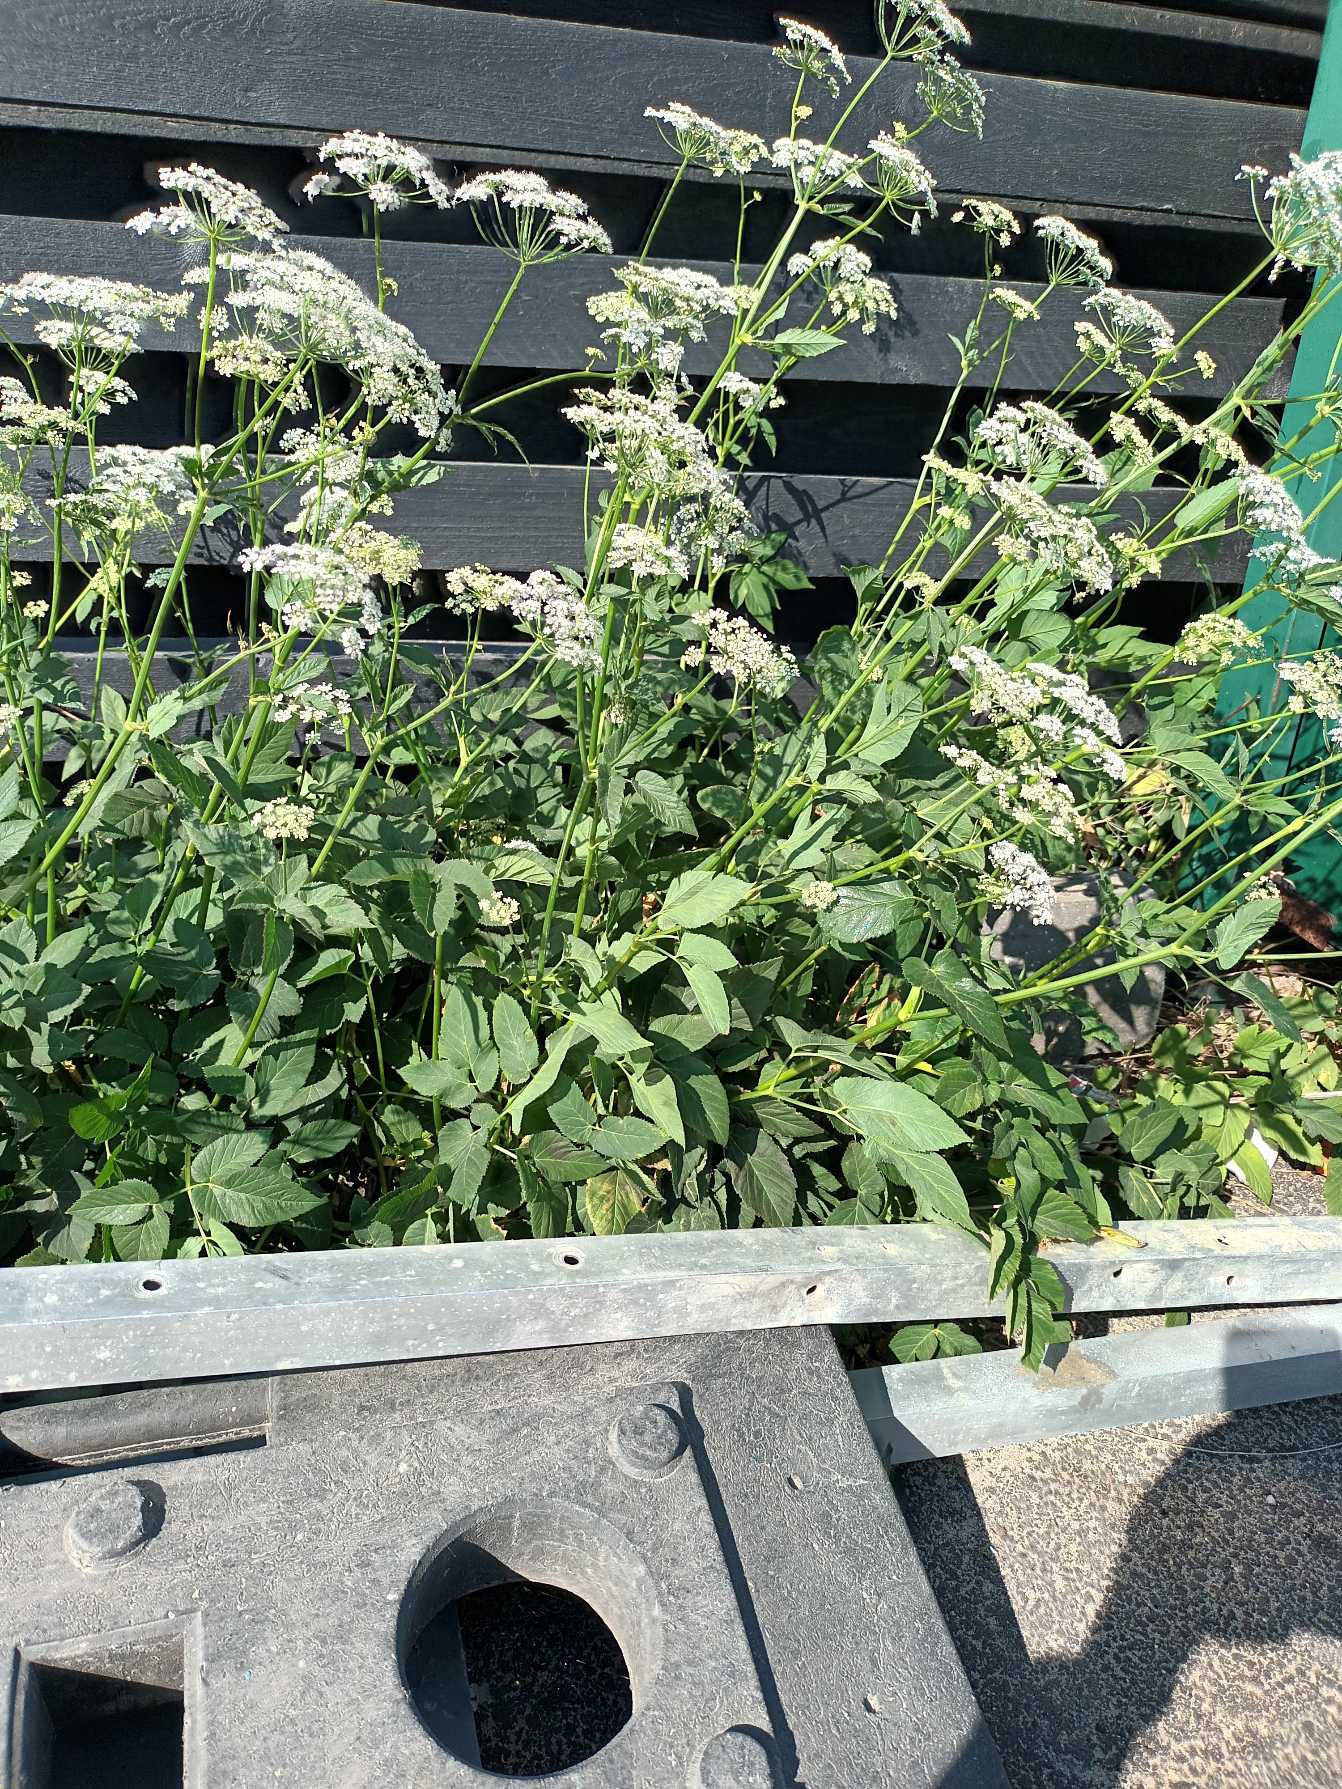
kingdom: Plantae
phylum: Tracheophyta
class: Magnoliopsida
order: Apiales
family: Apiaceae
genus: Aegopodium
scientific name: Aegopodium podagraria
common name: Skvalderkål
